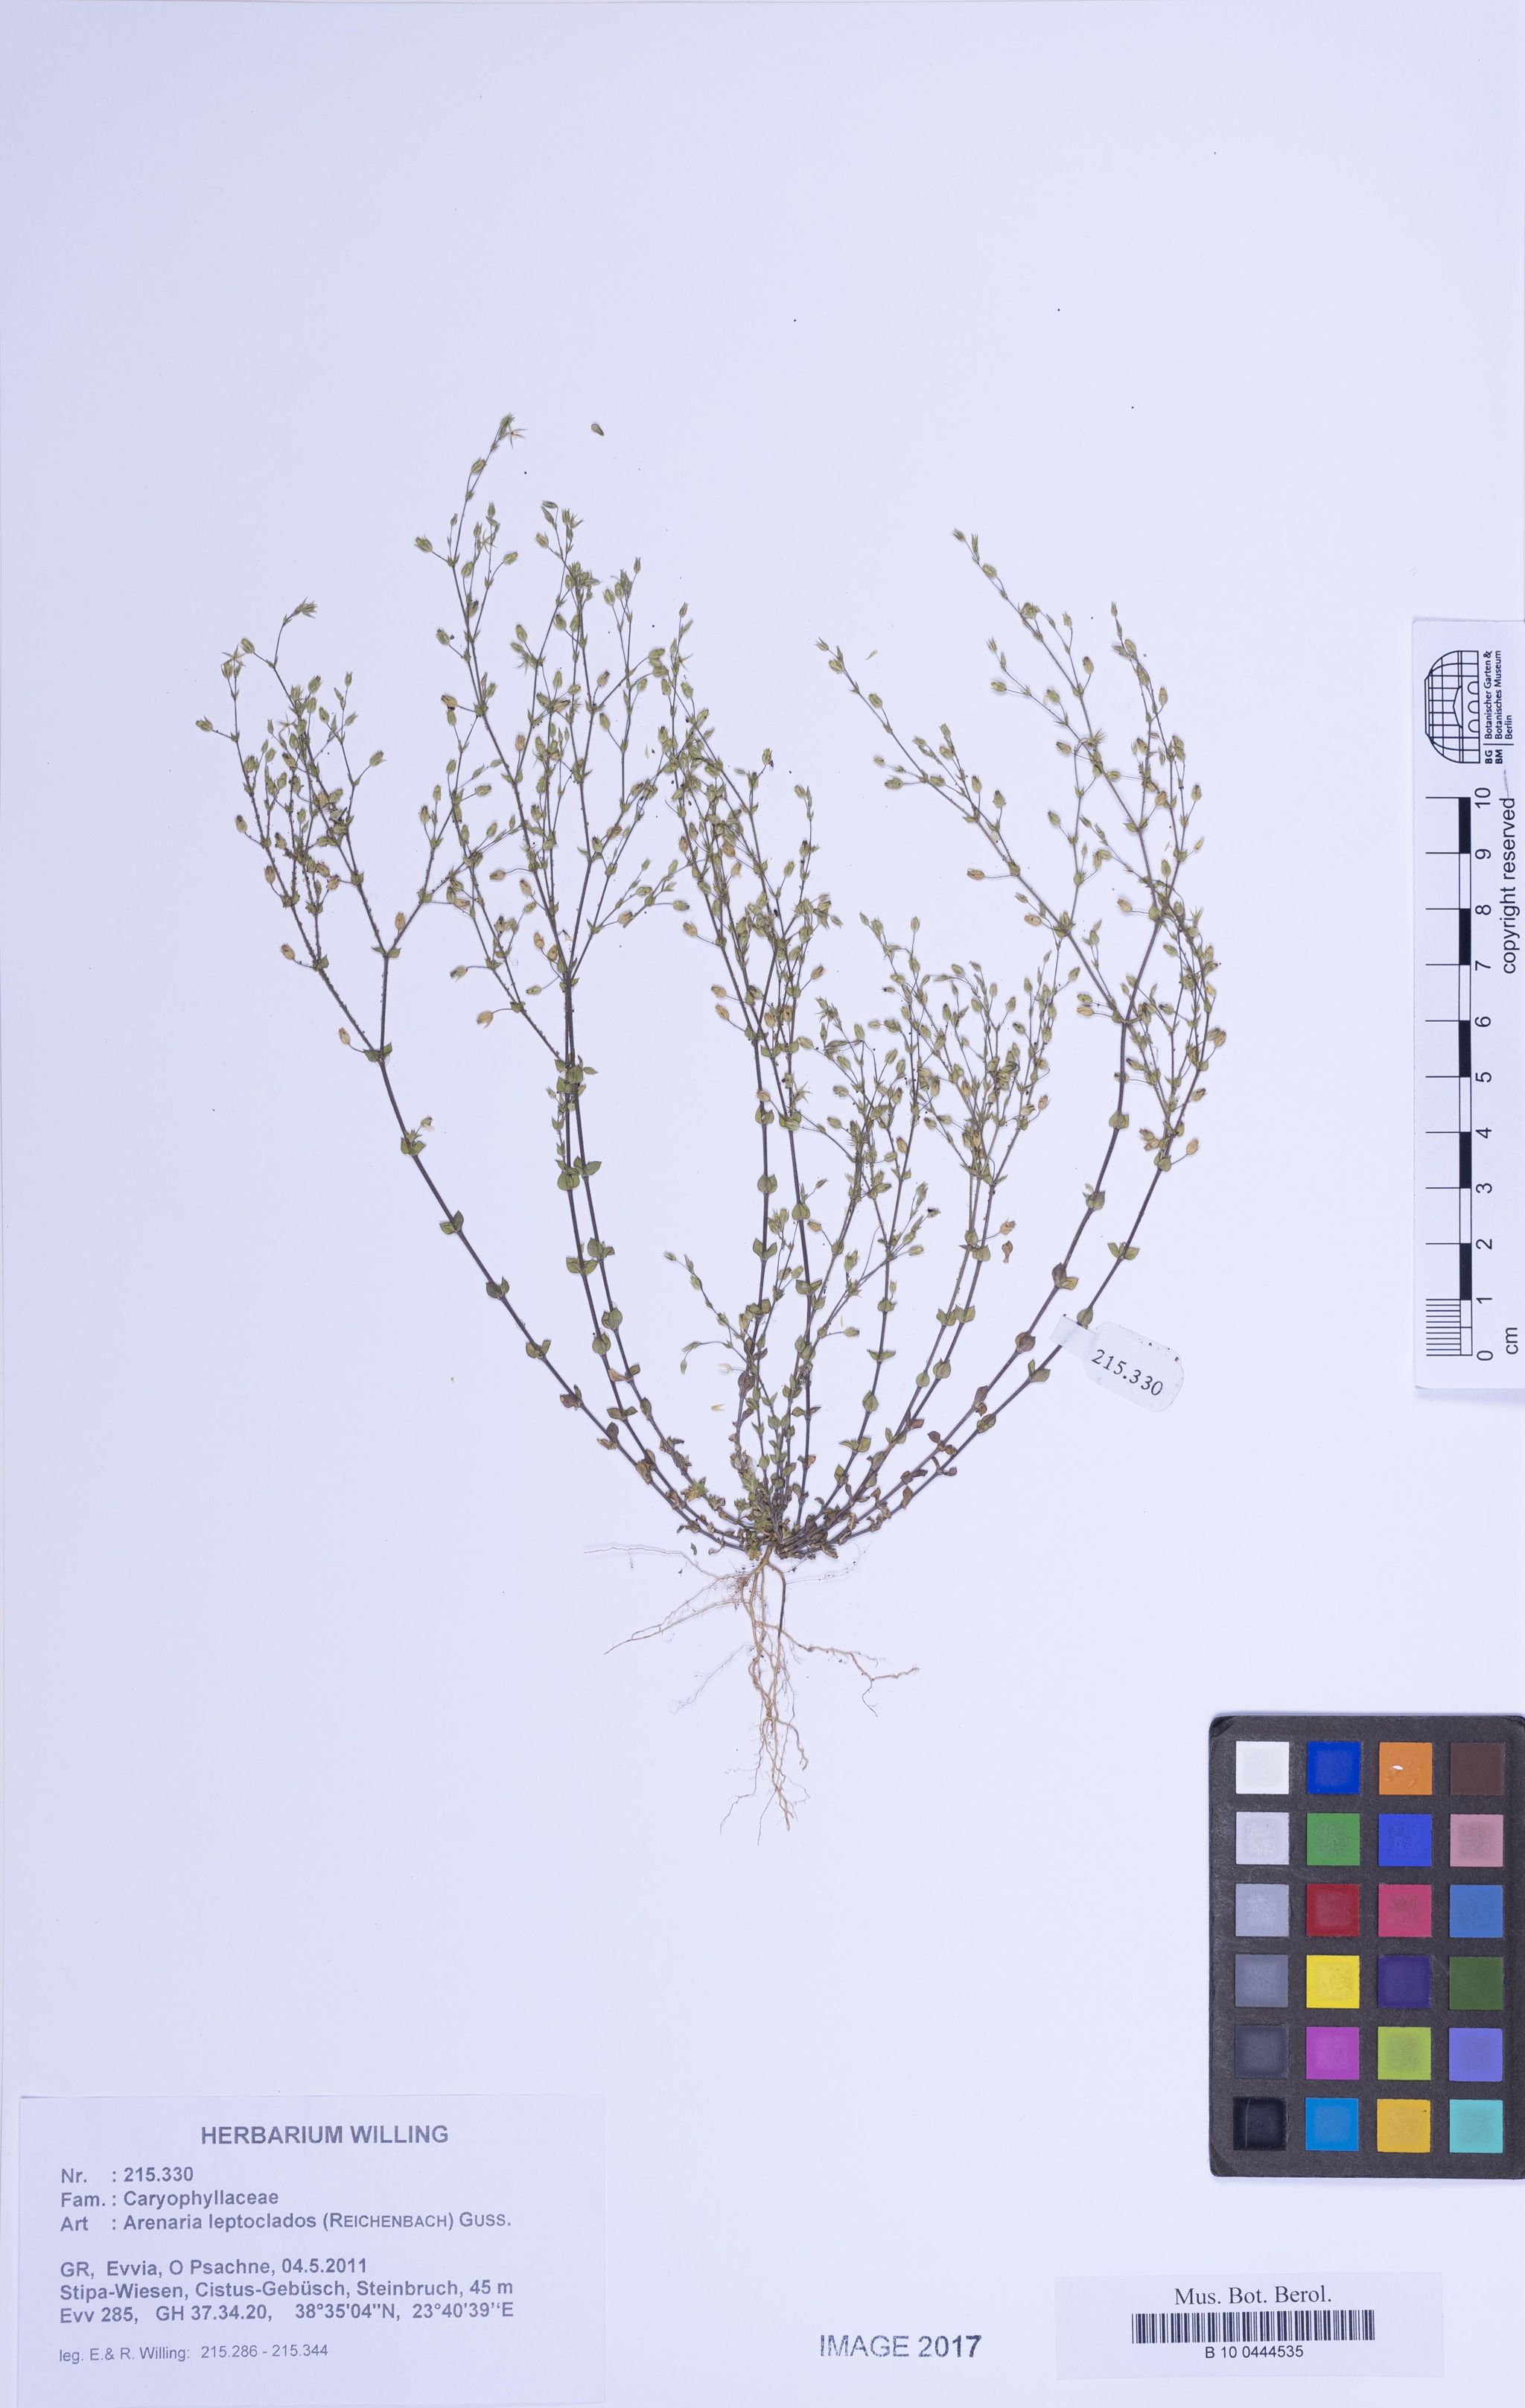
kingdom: Plantae
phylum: Tracheophyta
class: Magnoliopsida
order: Caryophyllales
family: Caryophyllaceae
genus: Arenaria
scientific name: Arenaria leptoclados
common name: Thyme-leaved sandwort
